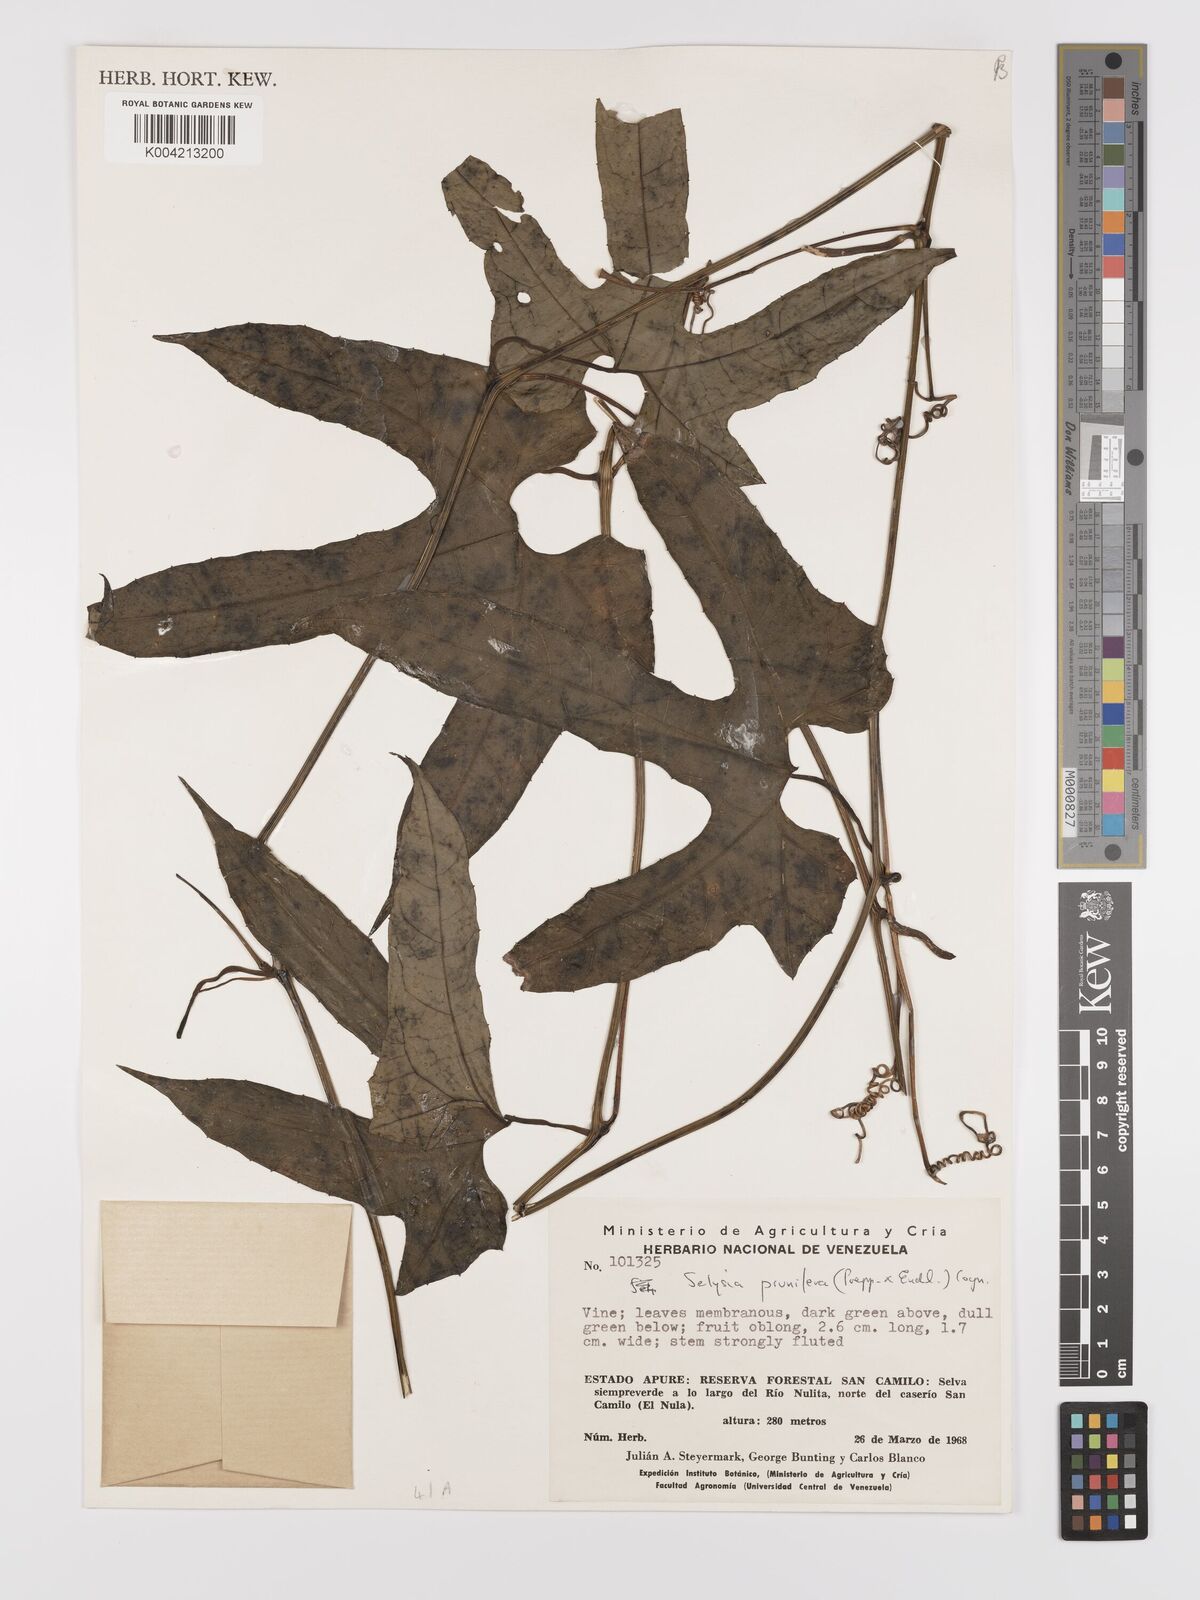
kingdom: Plantae
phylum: Tracheophyta
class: Magnoliopsida
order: Cucurbitales
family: Cucurbitaceae
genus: Cayaponia
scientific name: Cayaponia prunifera
